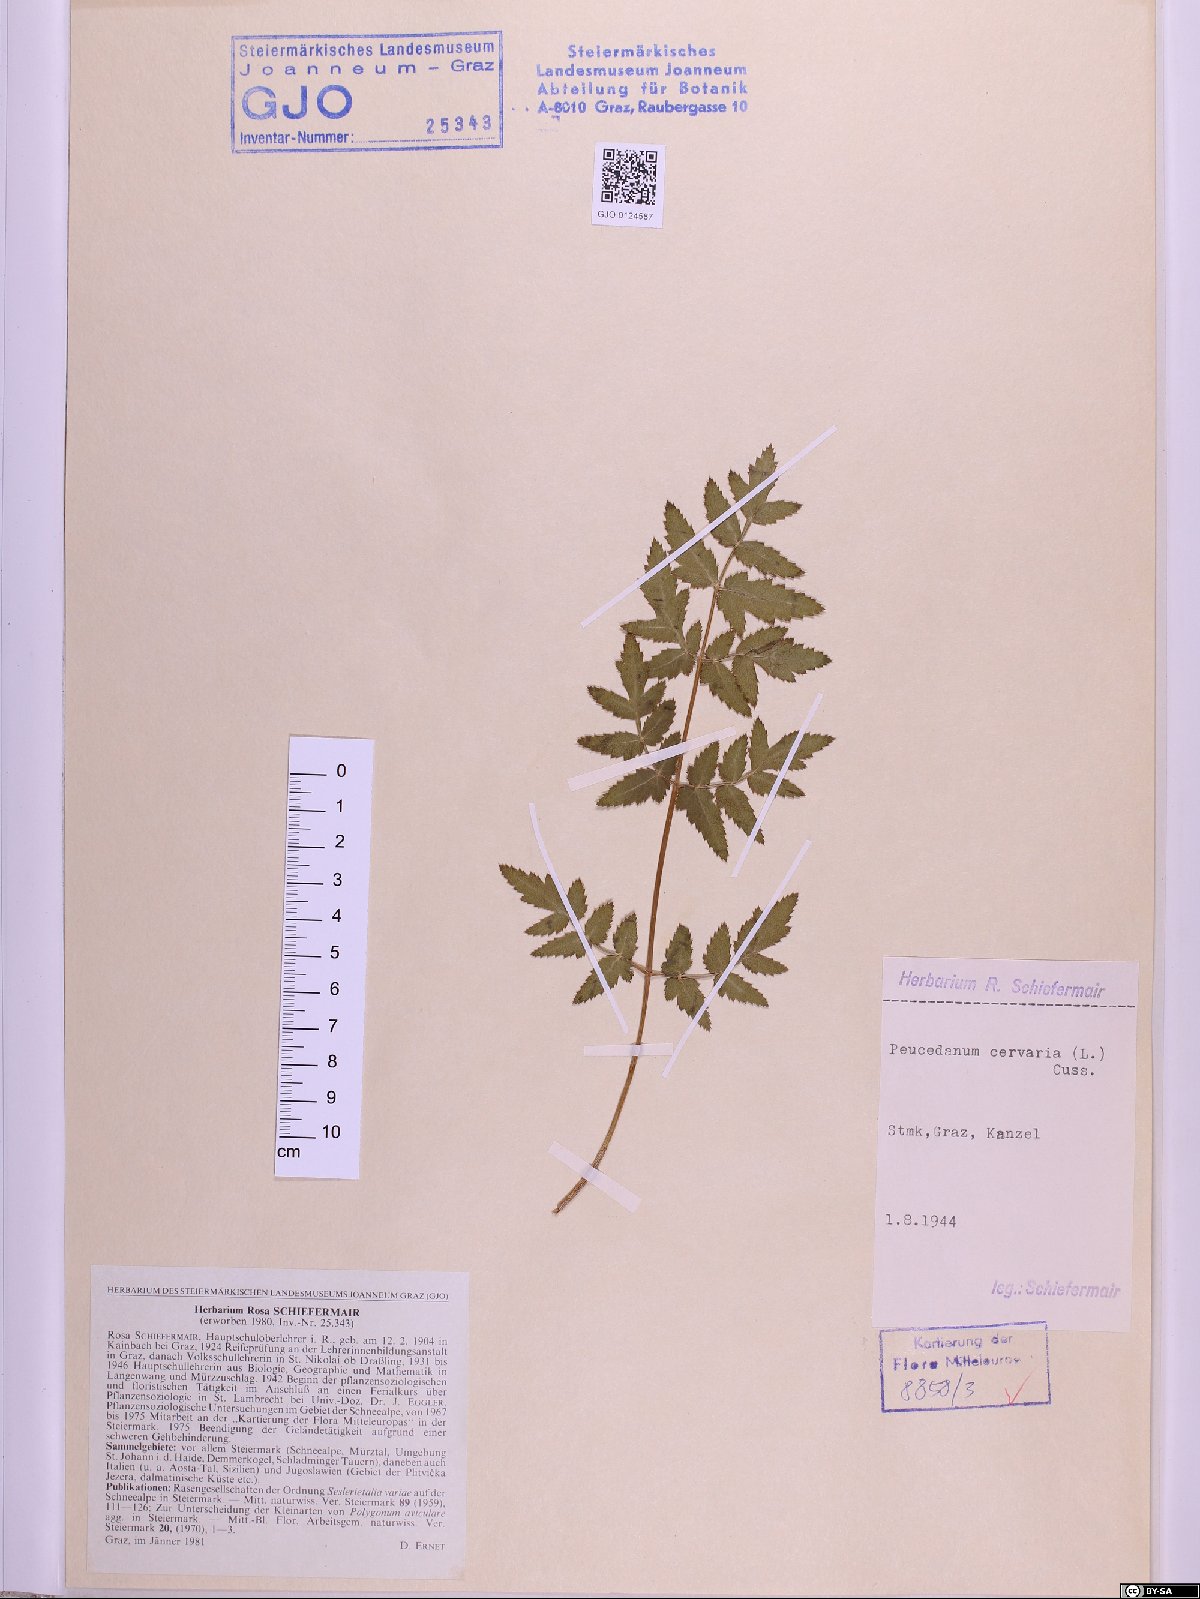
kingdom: Plantae
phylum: Tracheophyta
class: Magnoliopsida
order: Apiales
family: Apiaceae
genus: Cervaria
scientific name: Cervaria rivini
